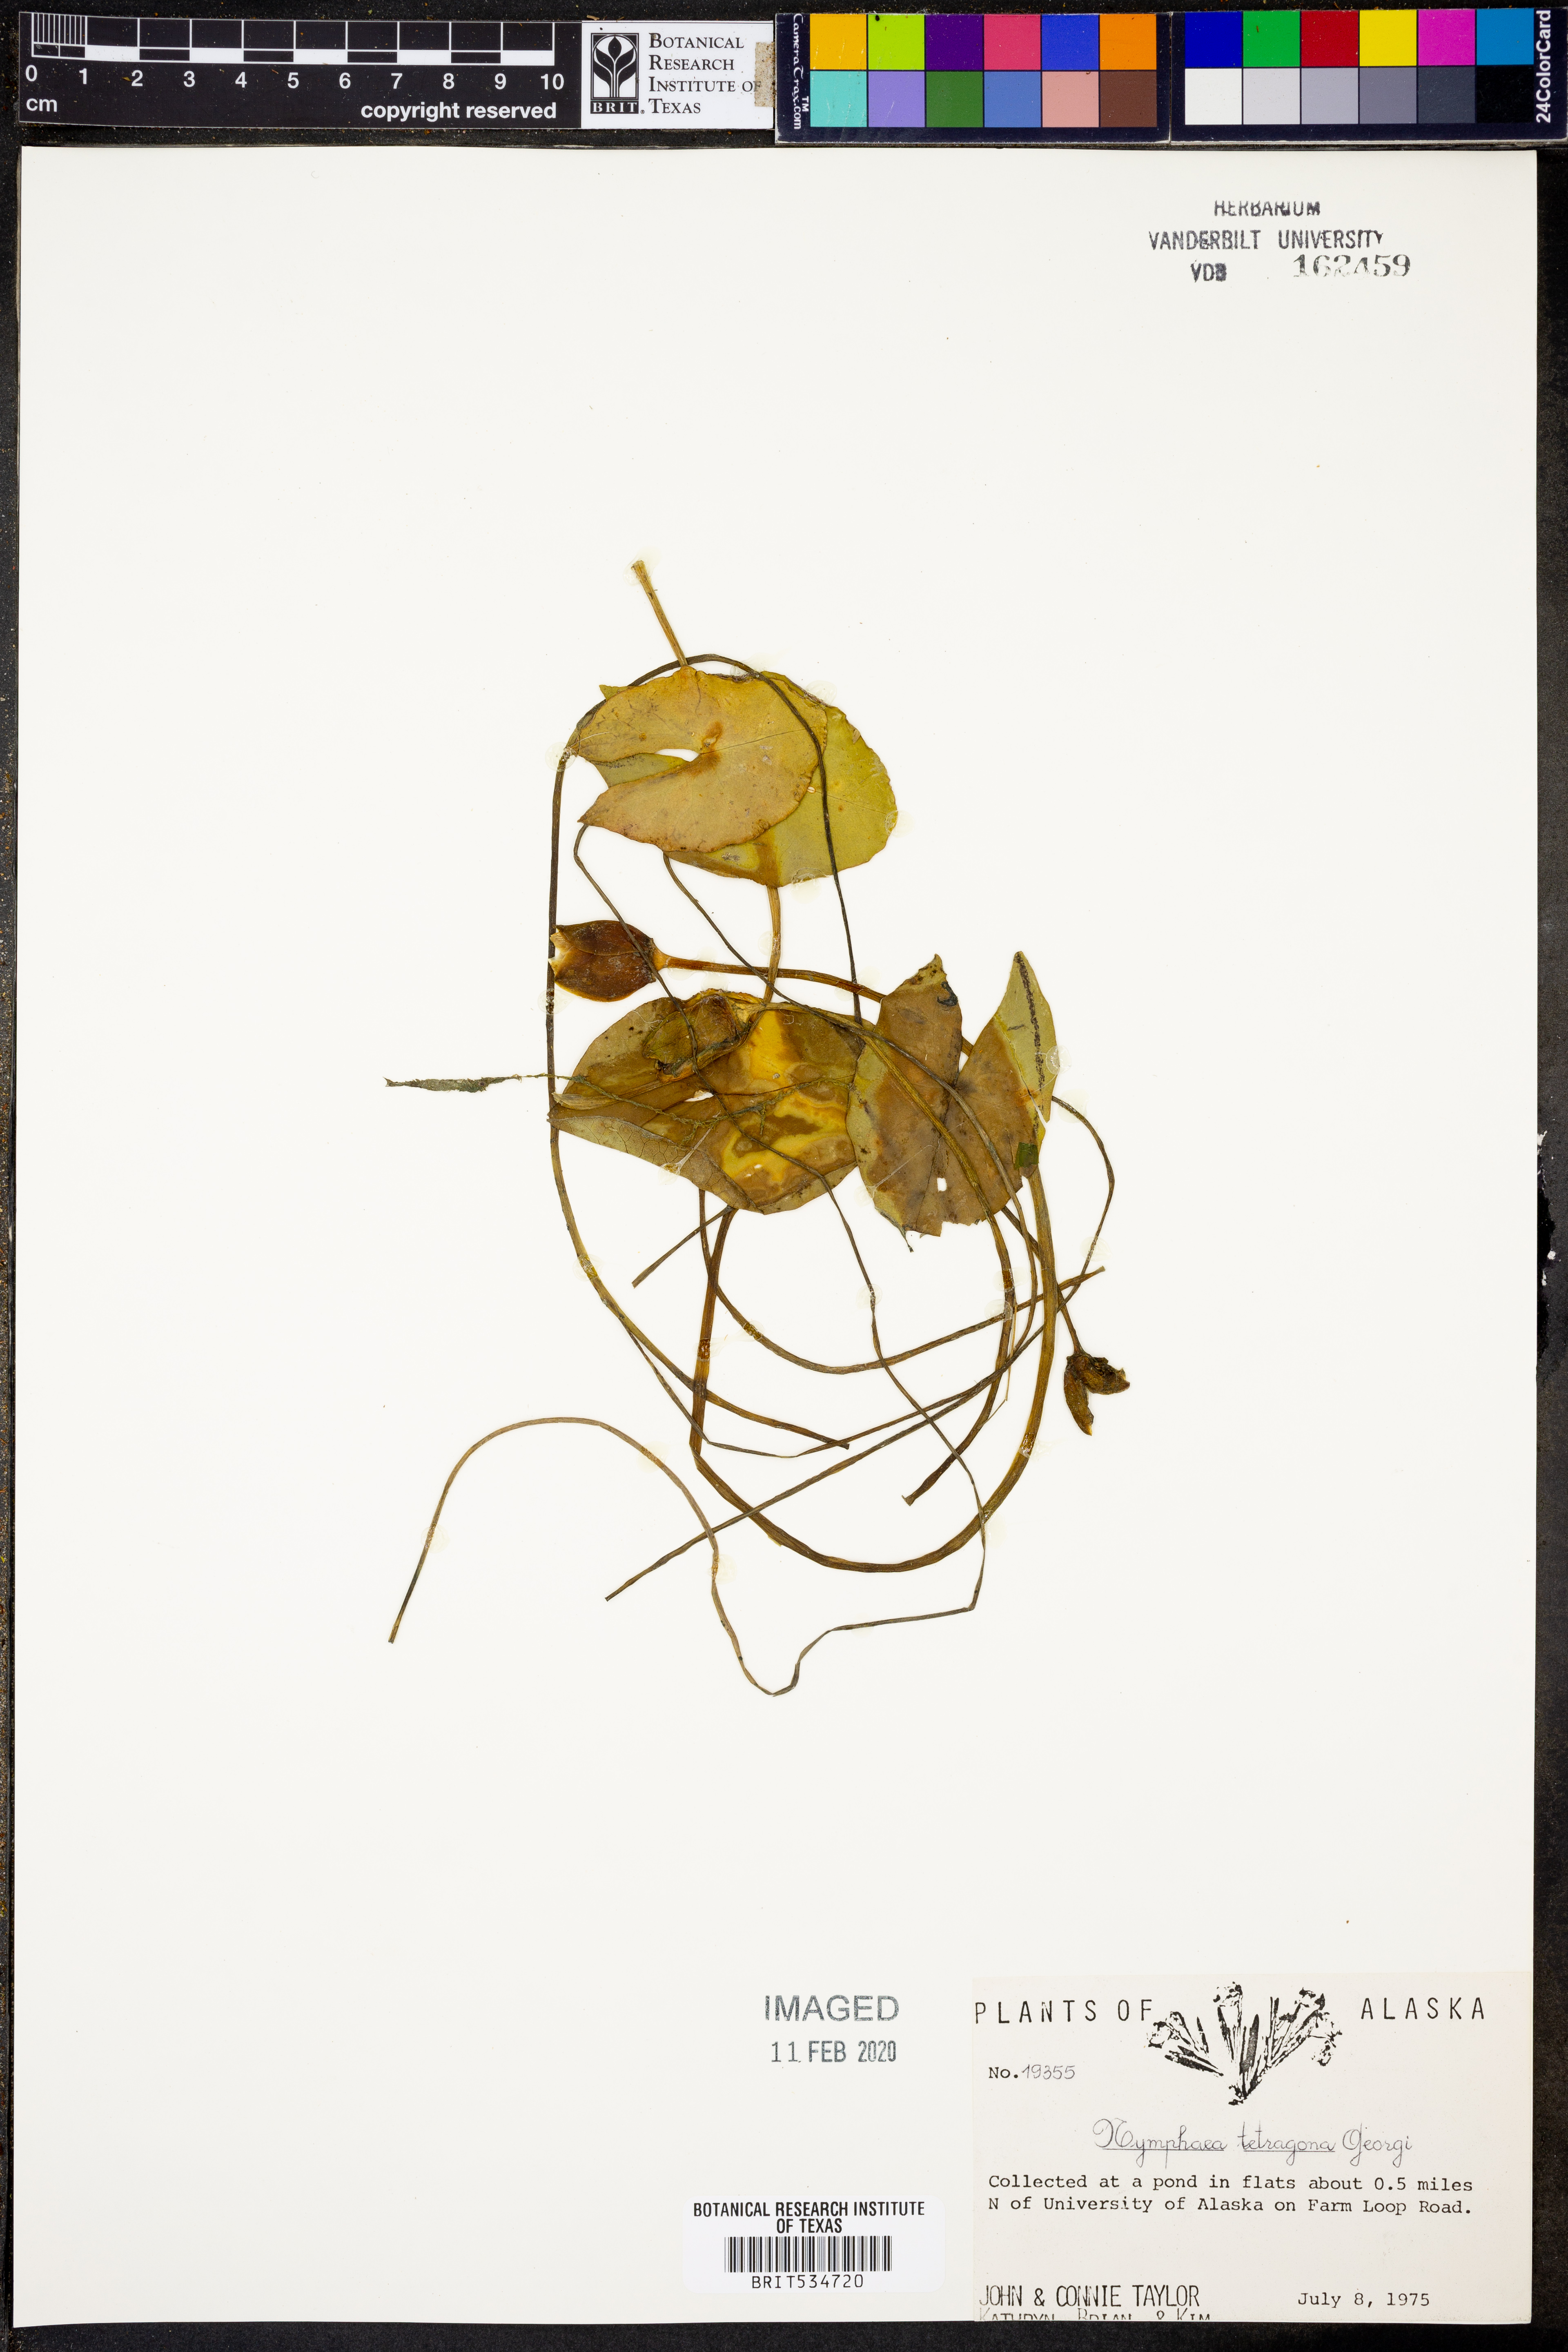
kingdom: Plantae
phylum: Tracheophyta
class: Magnoliopsida
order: Nymphaeales
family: Nymphaeaceae
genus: Nymphaea
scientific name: Nymphaea tetragona
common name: Pygmy water-lily
